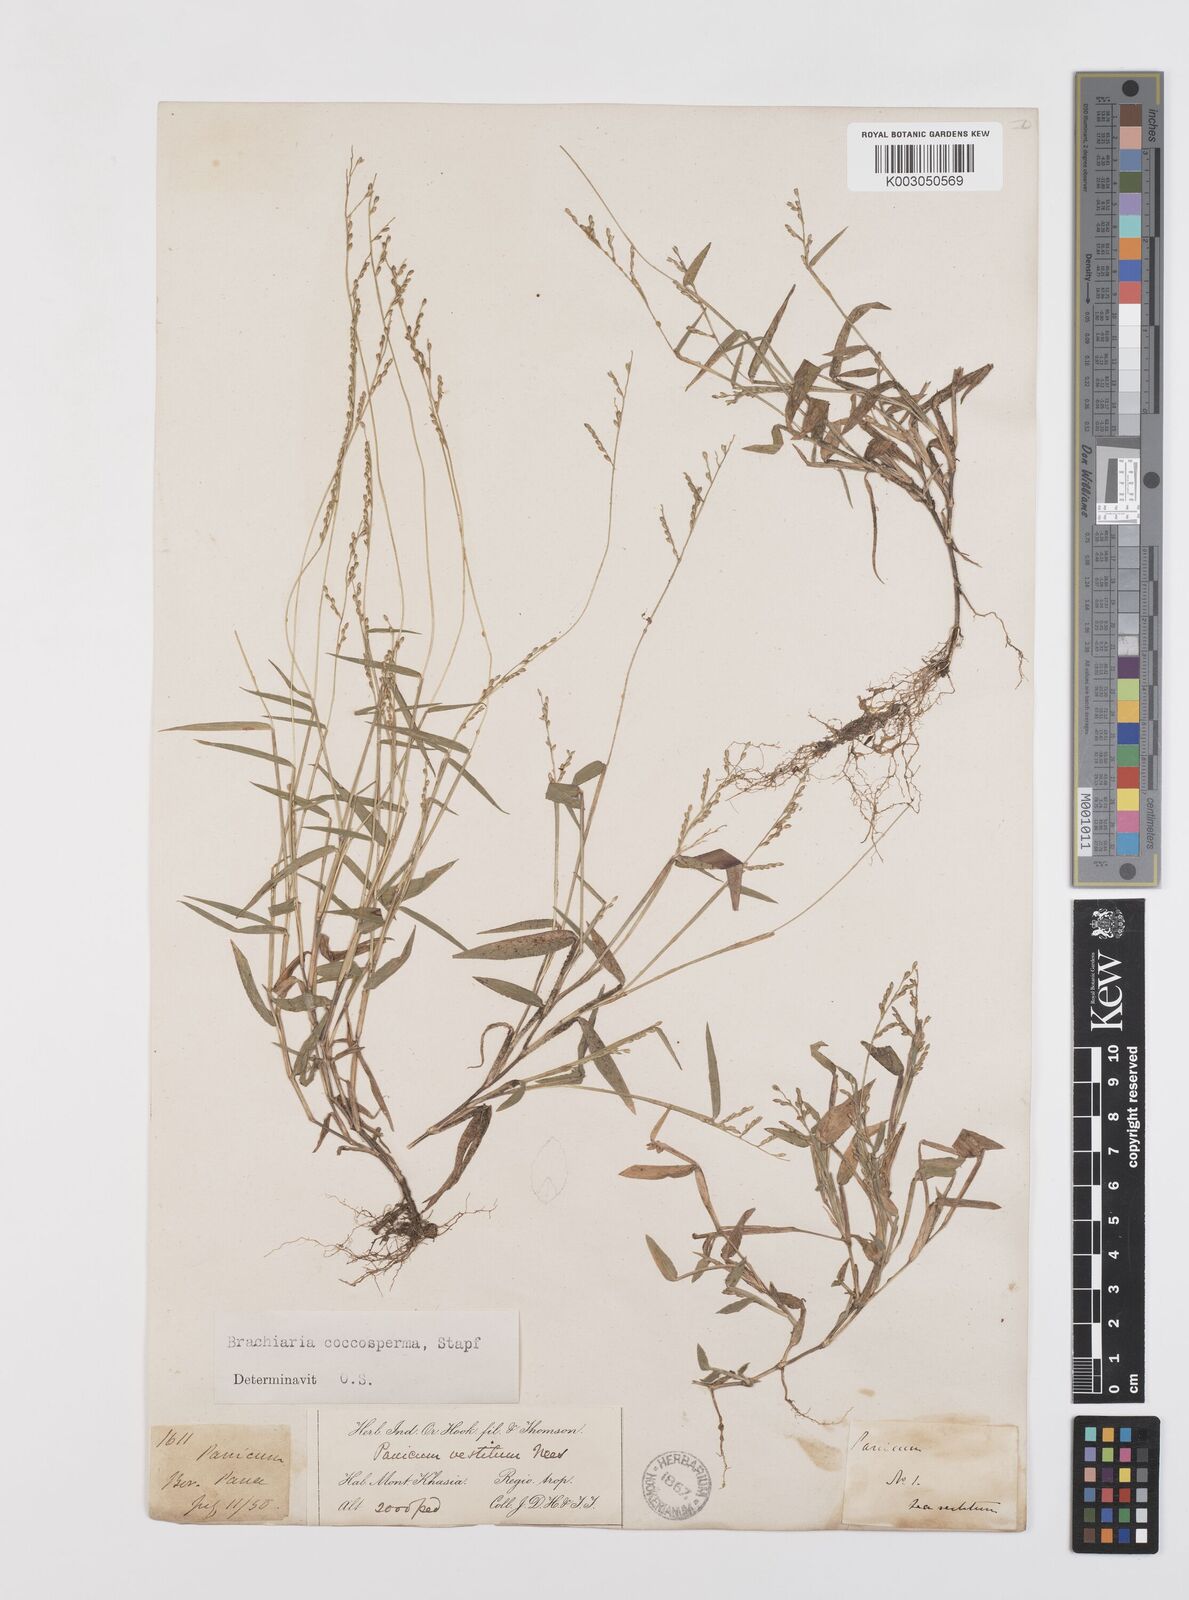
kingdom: Plantae
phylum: Tracheophyta
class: Liliopsida
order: Poales
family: Poaceae
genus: Urochloa
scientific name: Urochloa villosa
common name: Hairy signalgrass
